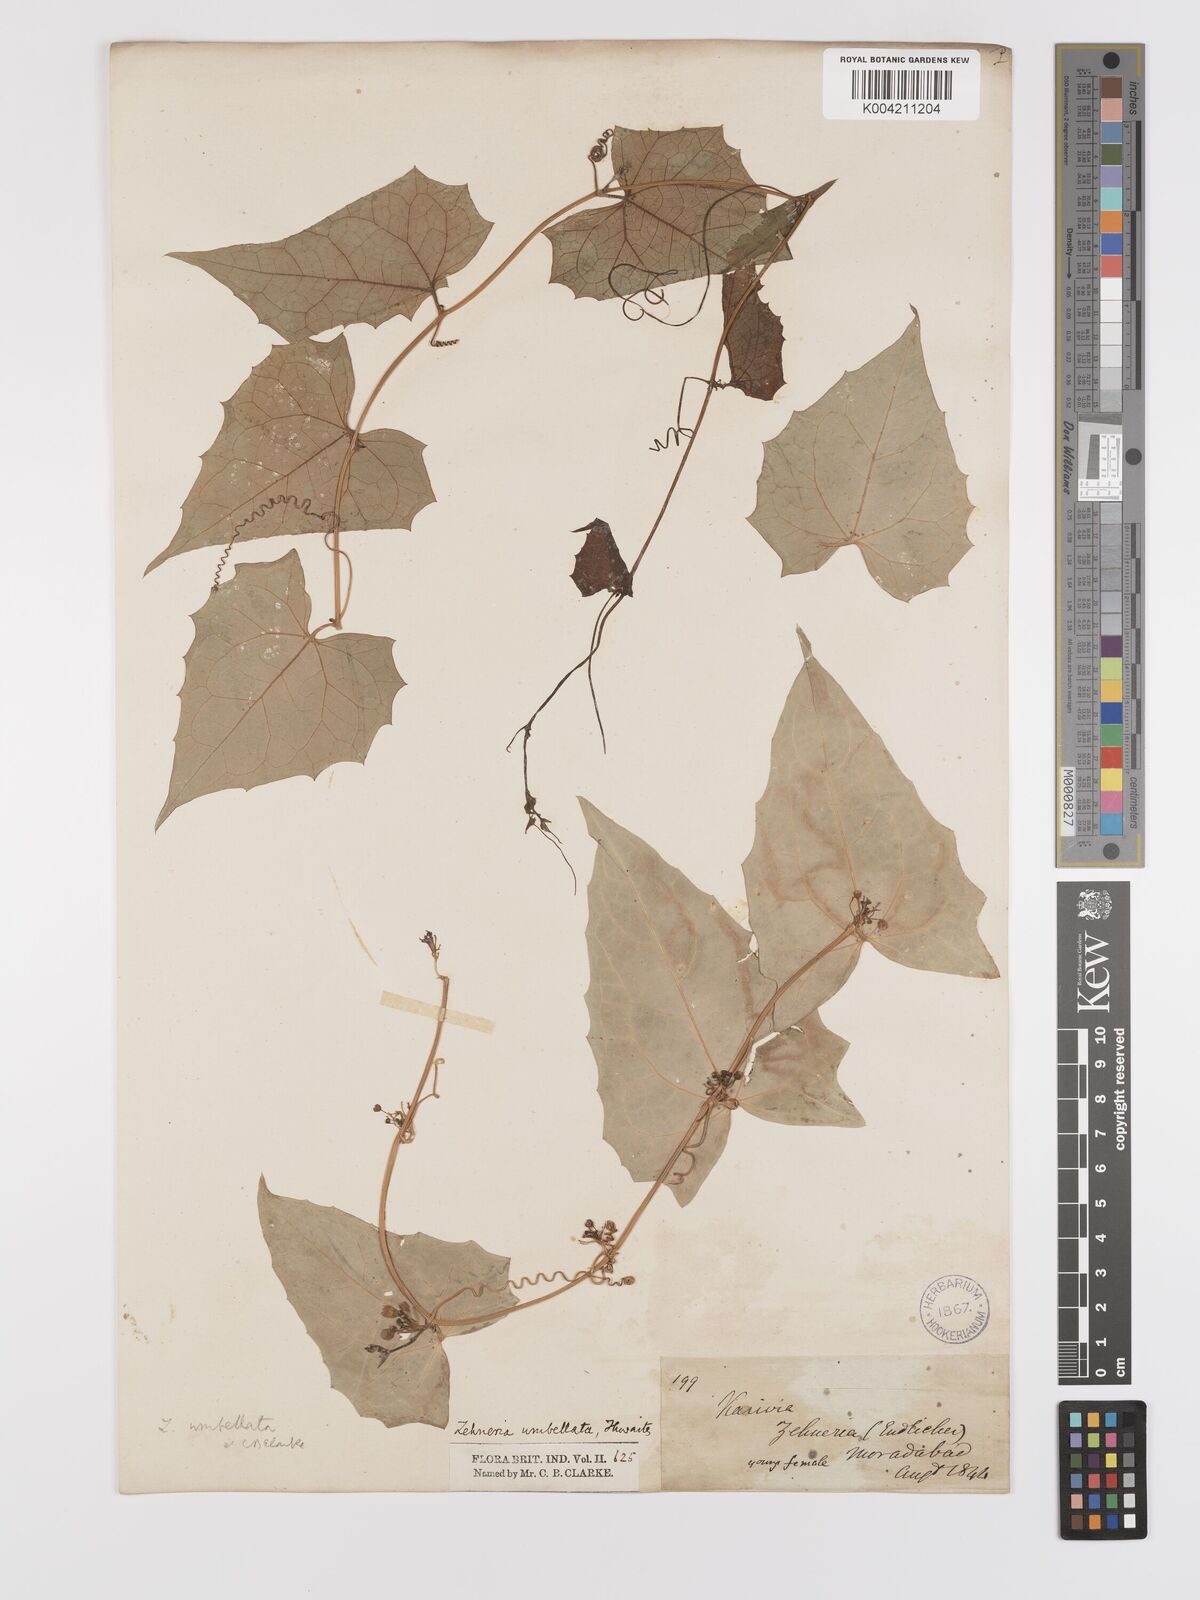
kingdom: Plantae
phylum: Tracheophyta
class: Magnoliopsida
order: Cucurbitales
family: Cucurbitaceae
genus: Solena
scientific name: Solena amplexicaulis
